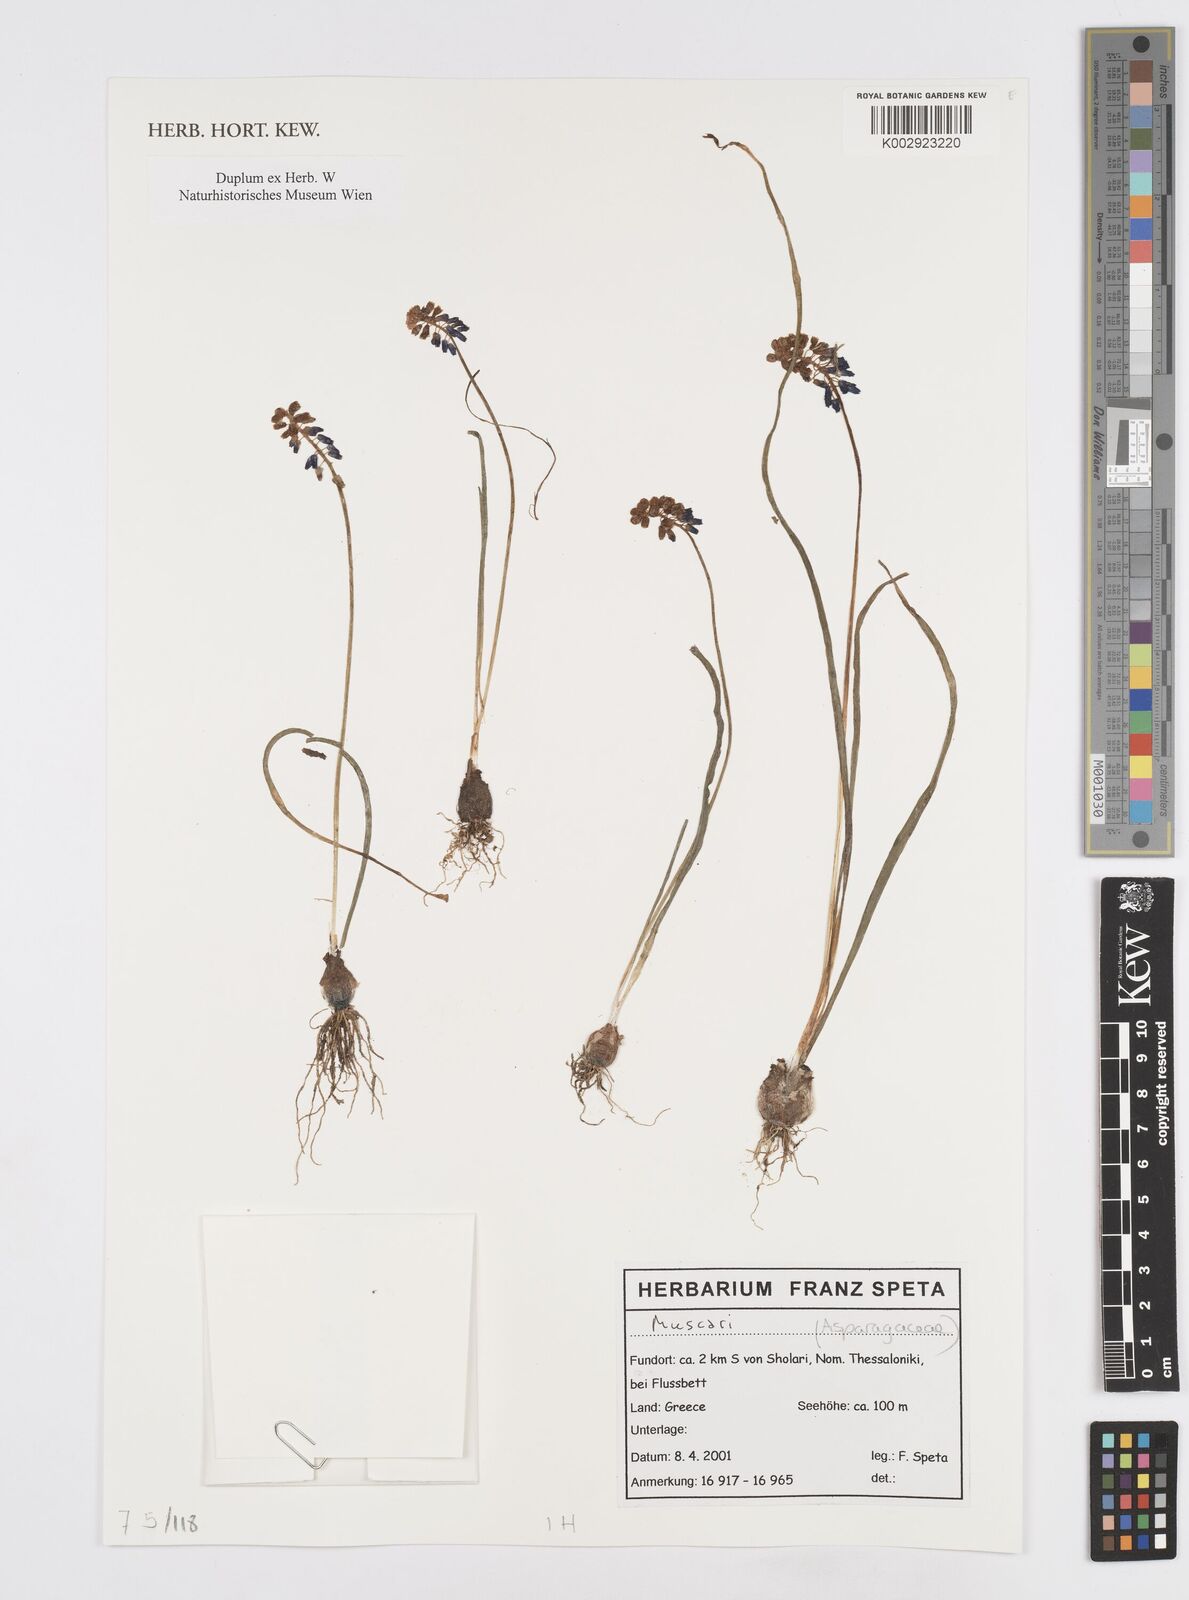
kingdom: Plantae
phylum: Tracheophyta
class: Liliopsida
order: Asparagales
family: Asparagaceae
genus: Muscari
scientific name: Muscari
